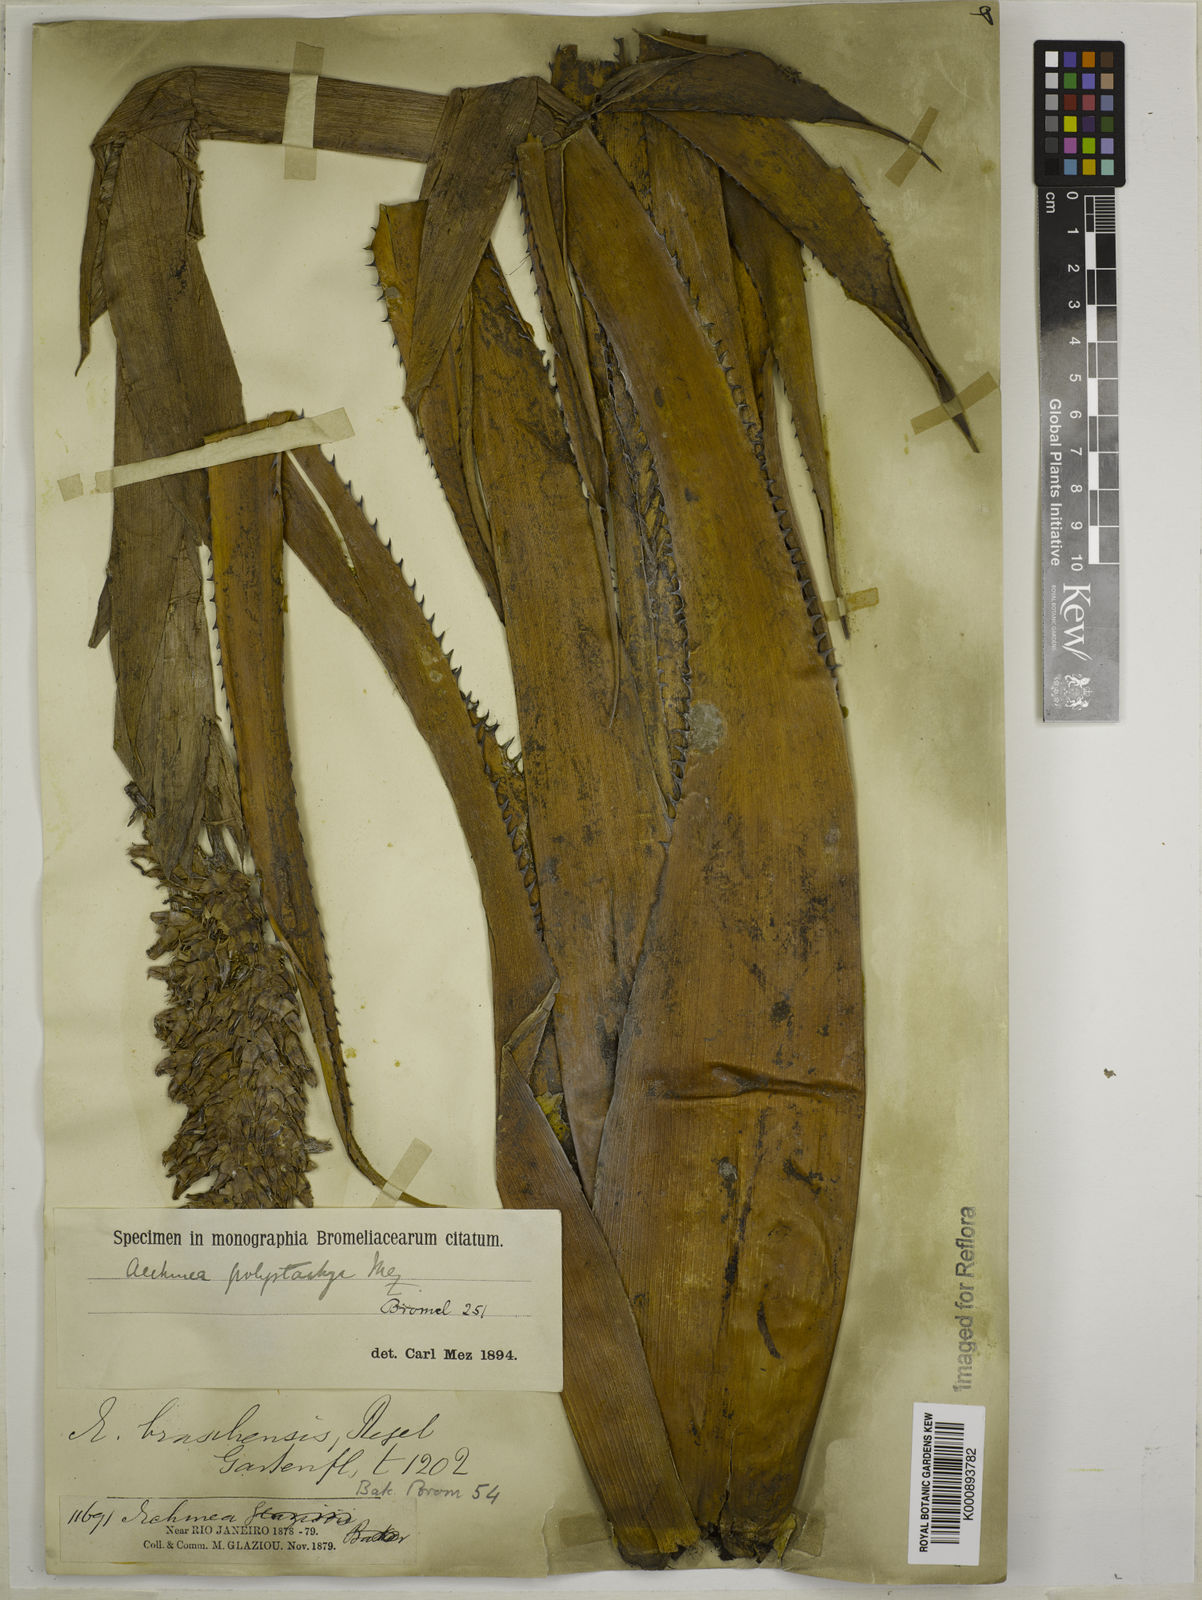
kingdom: Plantae
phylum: Tracheophyta
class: Liliopsida
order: Poales
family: Bromeliaceae
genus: Aechmea
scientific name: Aechmea distichantha
